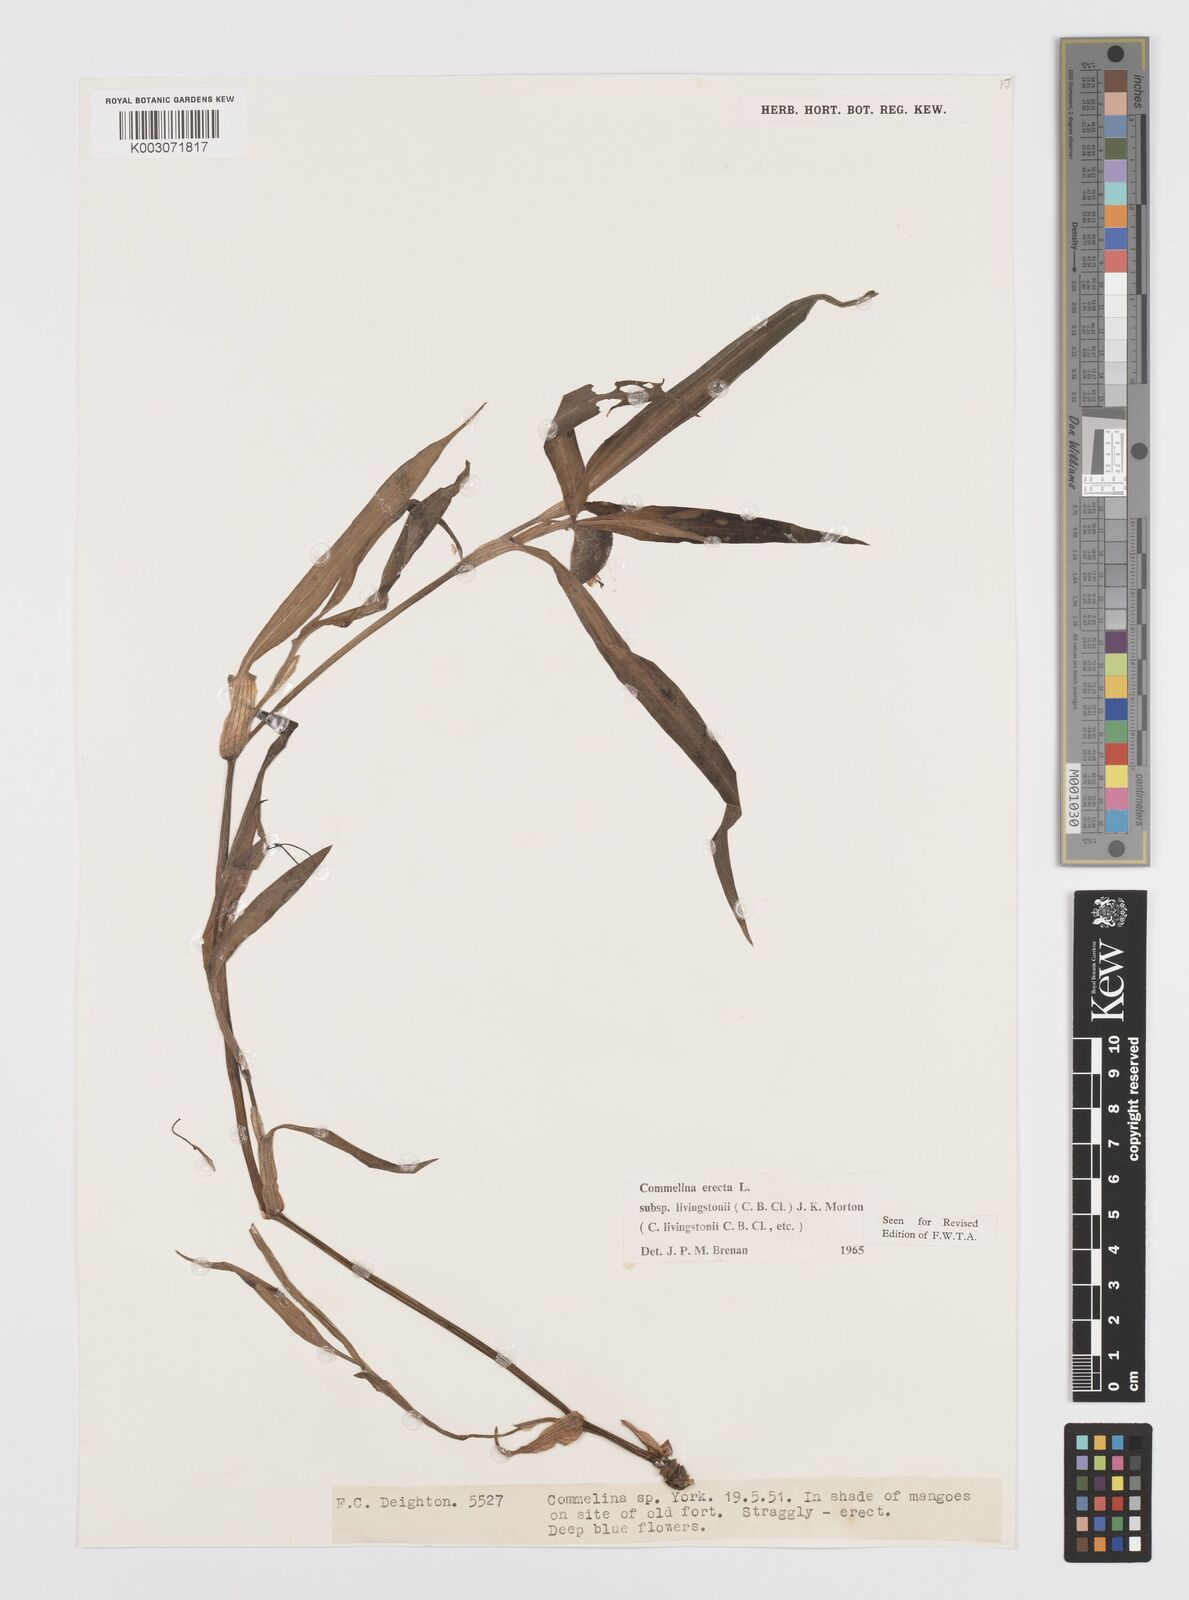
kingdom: Plantae
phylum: Tracheophyta
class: Liliopsida
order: Commelinales
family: Commelinaceae
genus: Commelina
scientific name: Commelina erecta
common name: Blousel blommetjie
